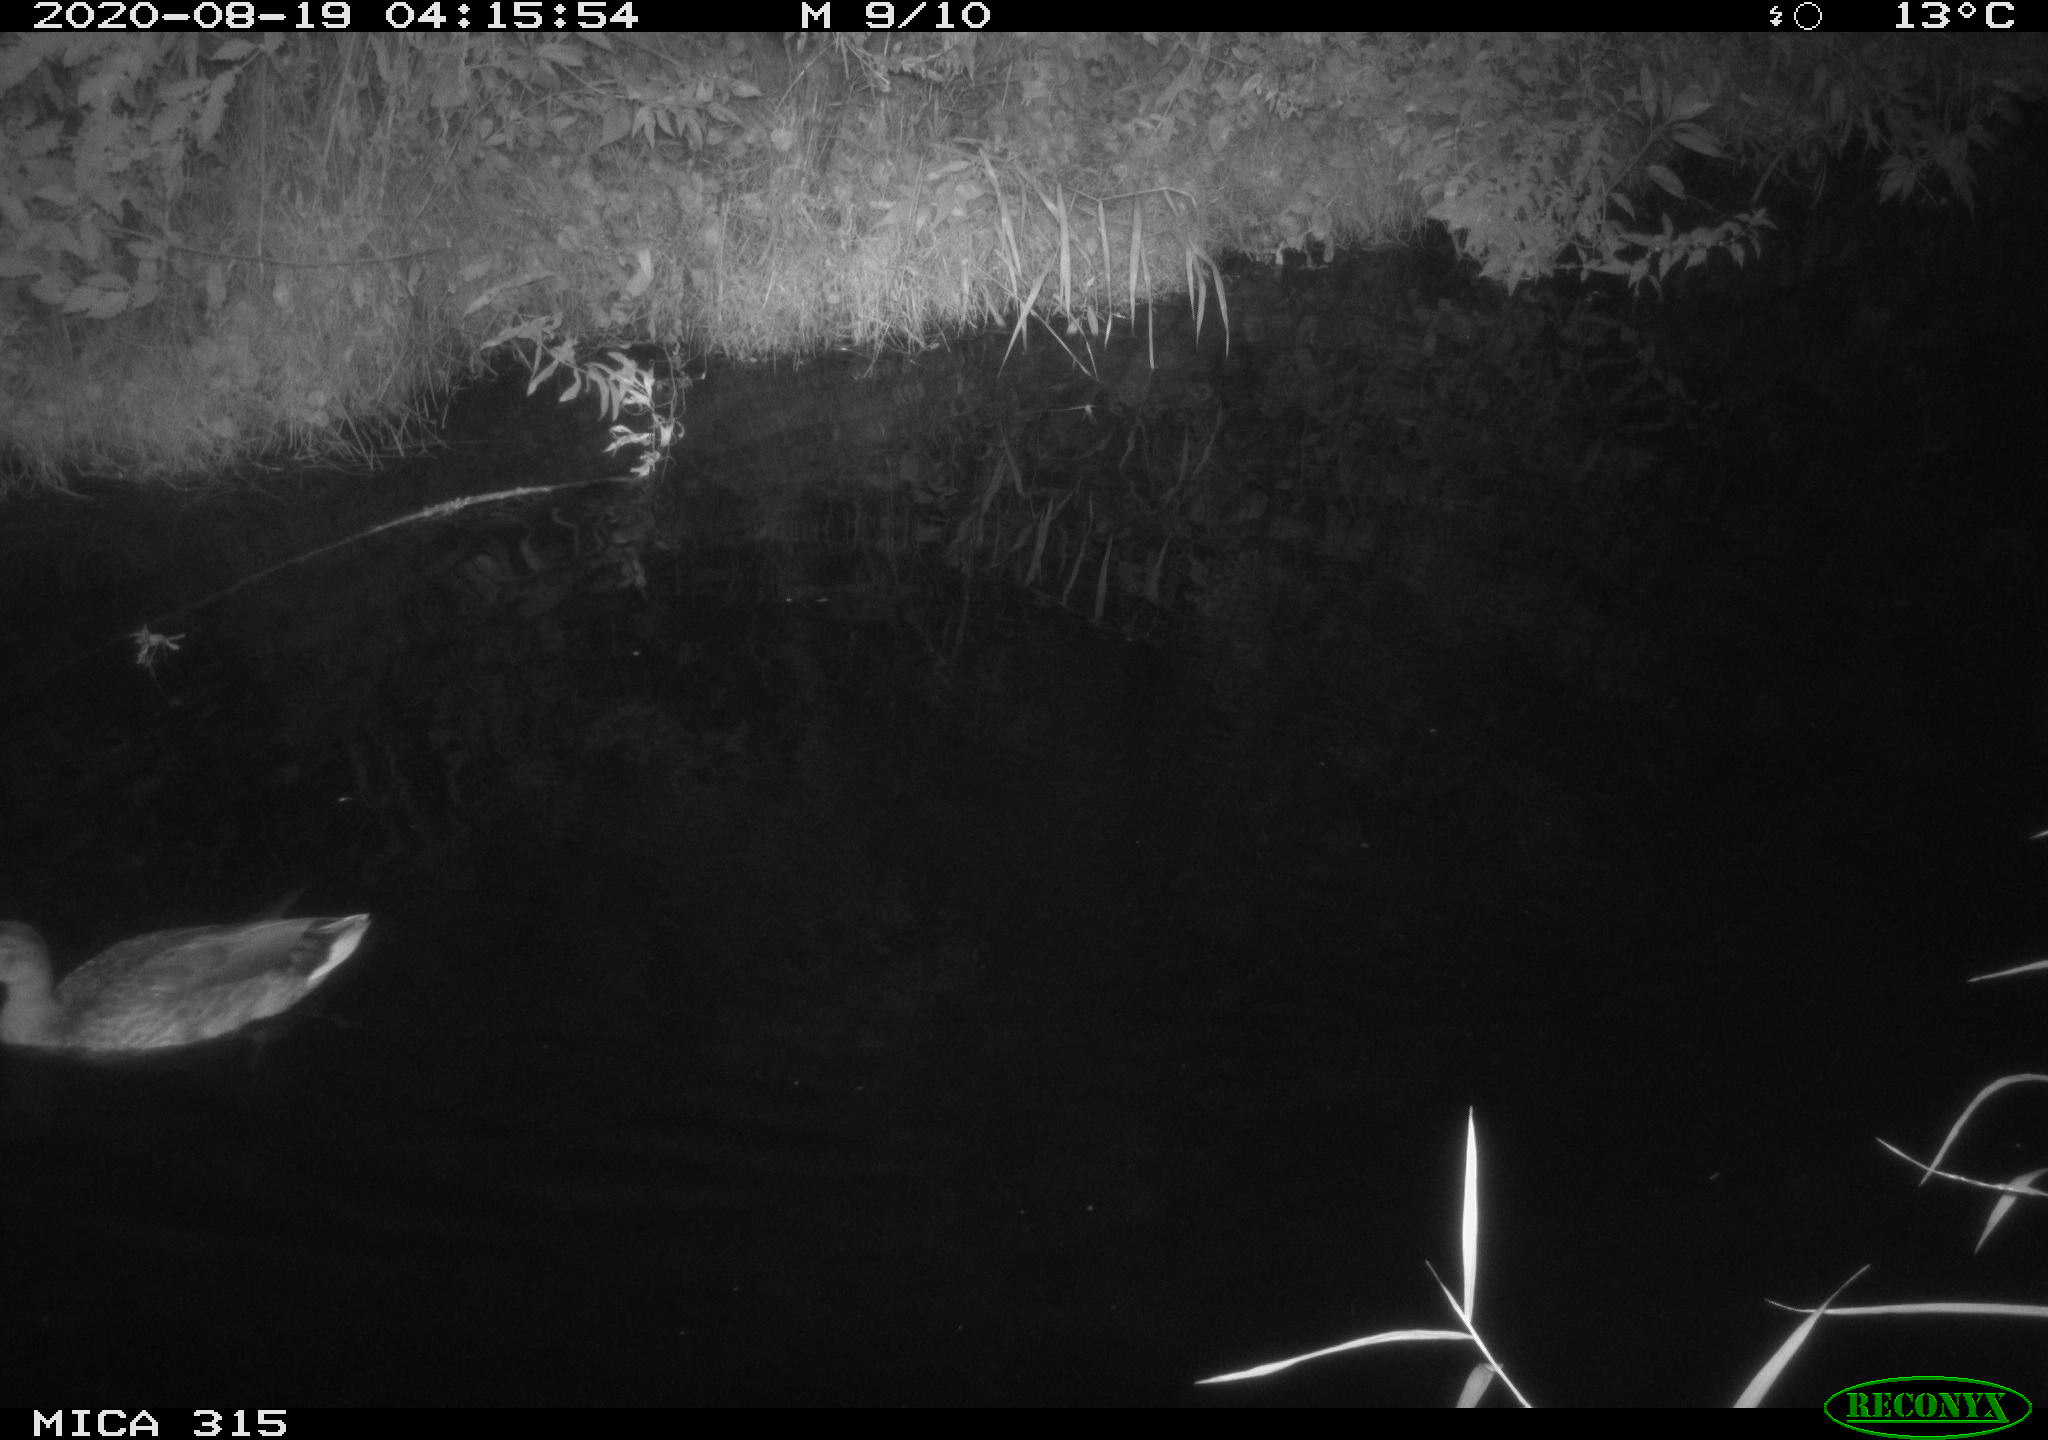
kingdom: Animalia
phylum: Chordata
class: Aves
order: Anseriformes
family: Anatidae
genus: Anas
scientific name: Anas platyrhynchos
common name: Mallard
